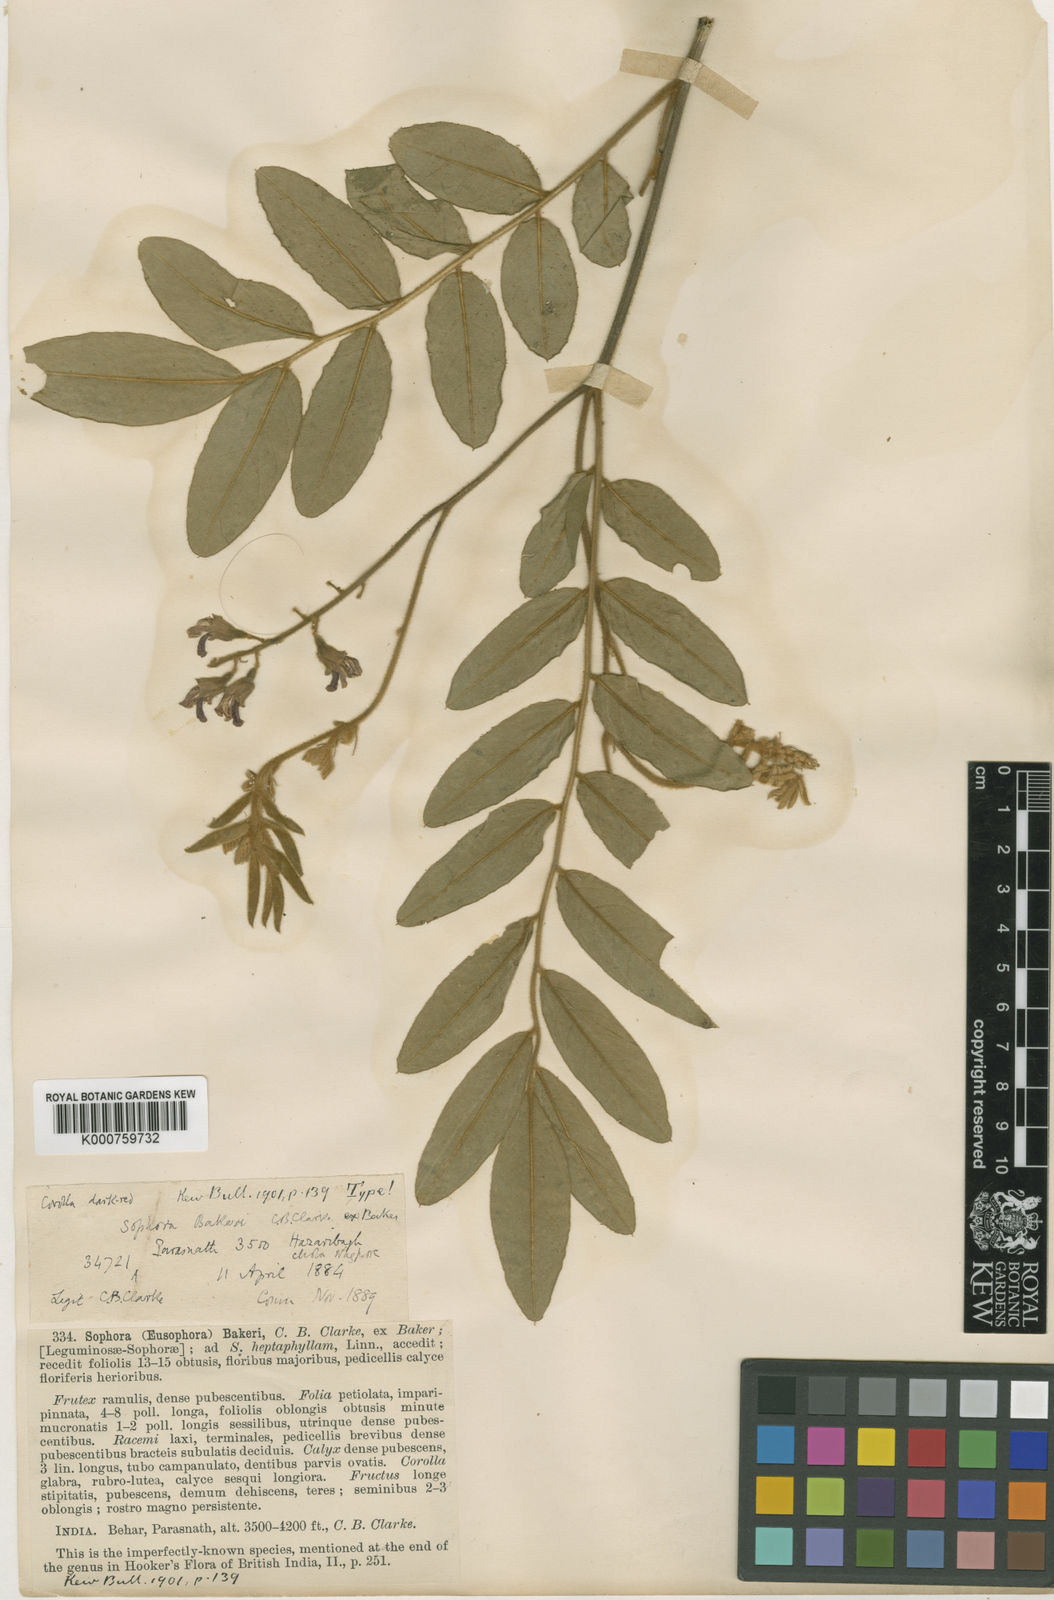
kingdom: Plantae
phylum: Tracheophyta
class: Magnoliopsida
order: Fabales
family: Fabaceae
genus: Sophora
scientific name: Sophora velutina
